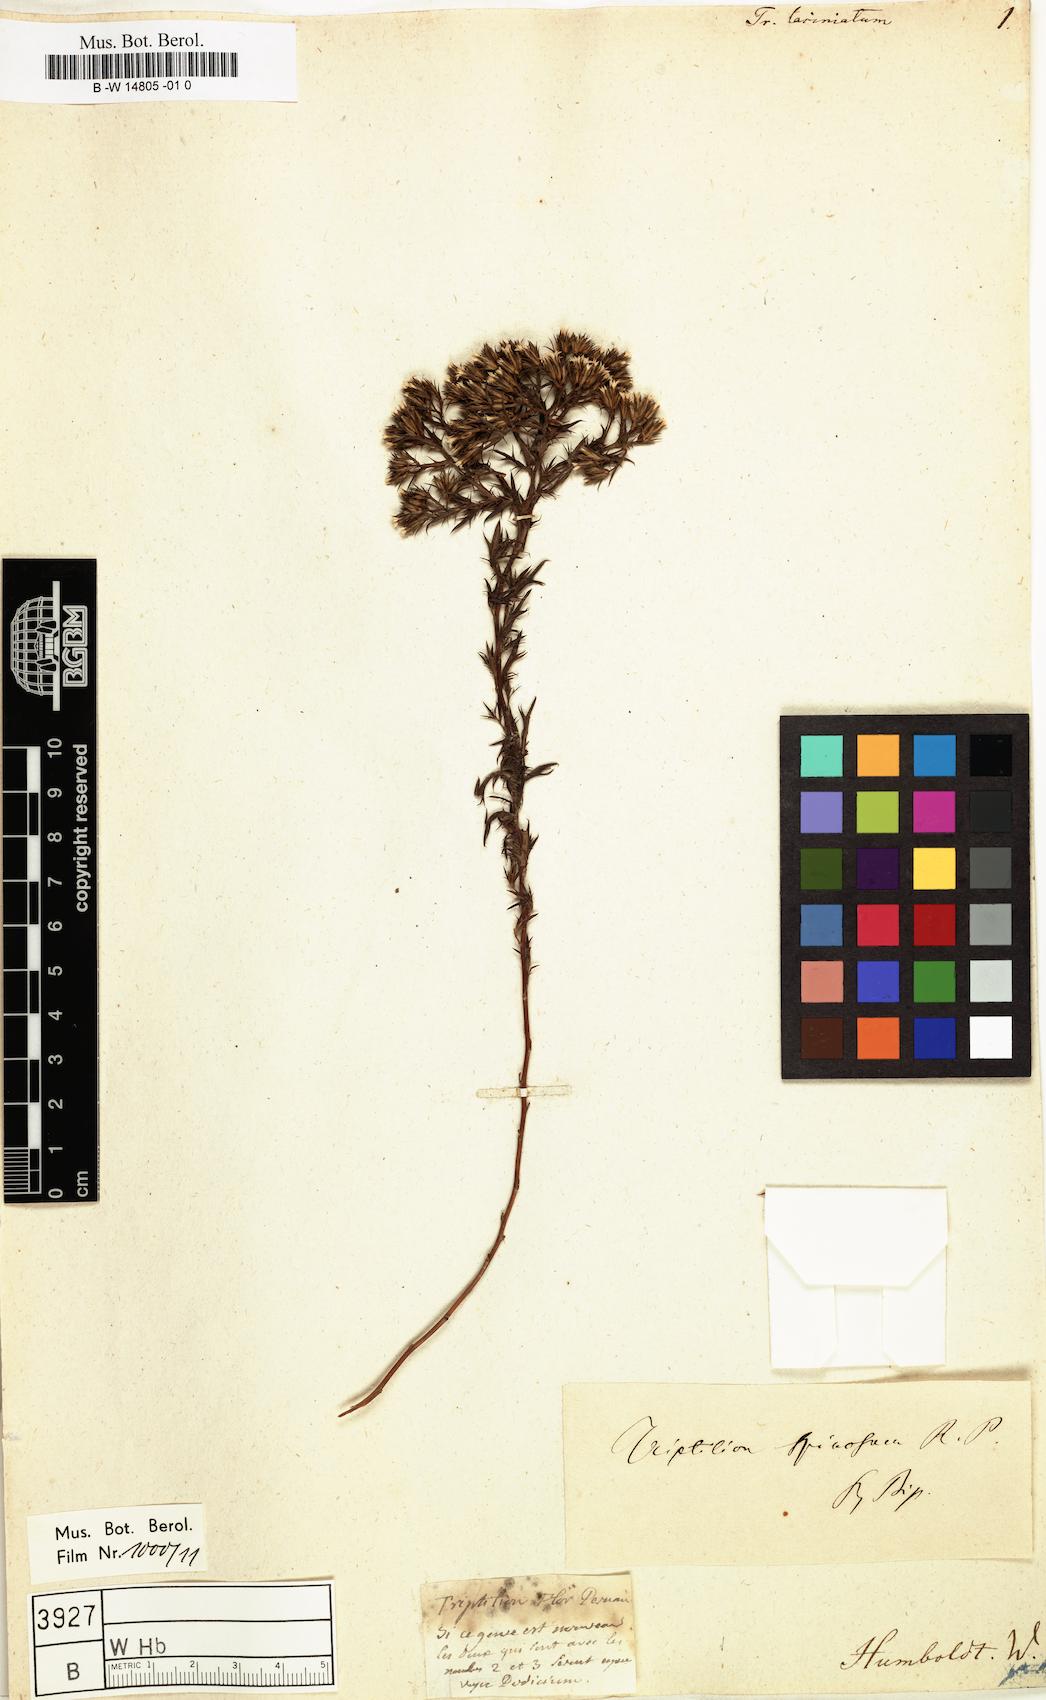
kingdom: Plantae
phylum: Tracheophyta
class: Magnoliopsida
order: Asterales
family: Asteraceae
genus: Triptilion
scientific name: Triptilion spinosum
